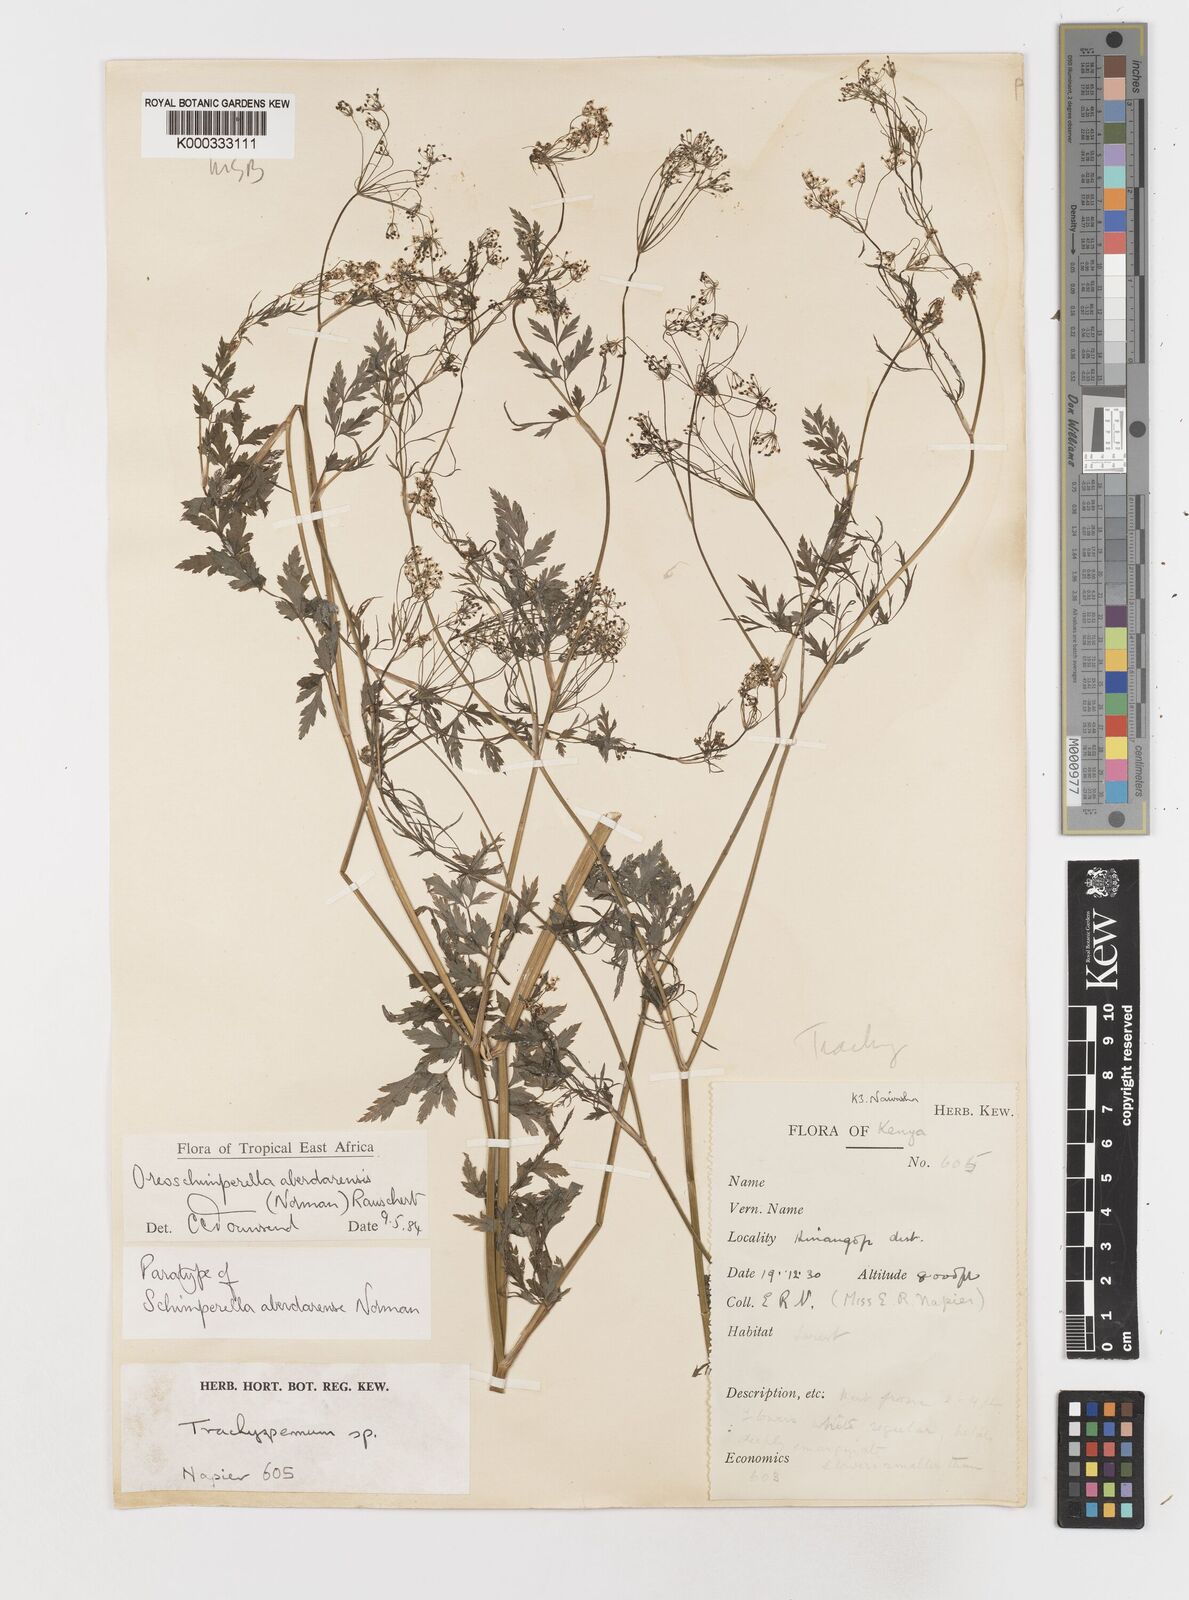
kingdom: Plantae
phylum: Tracheophyta
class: Magnoliopsida
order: Apiales
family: Apiaceae
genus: Oreoschimperella
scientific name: Oreoschimperella aberdarensis
